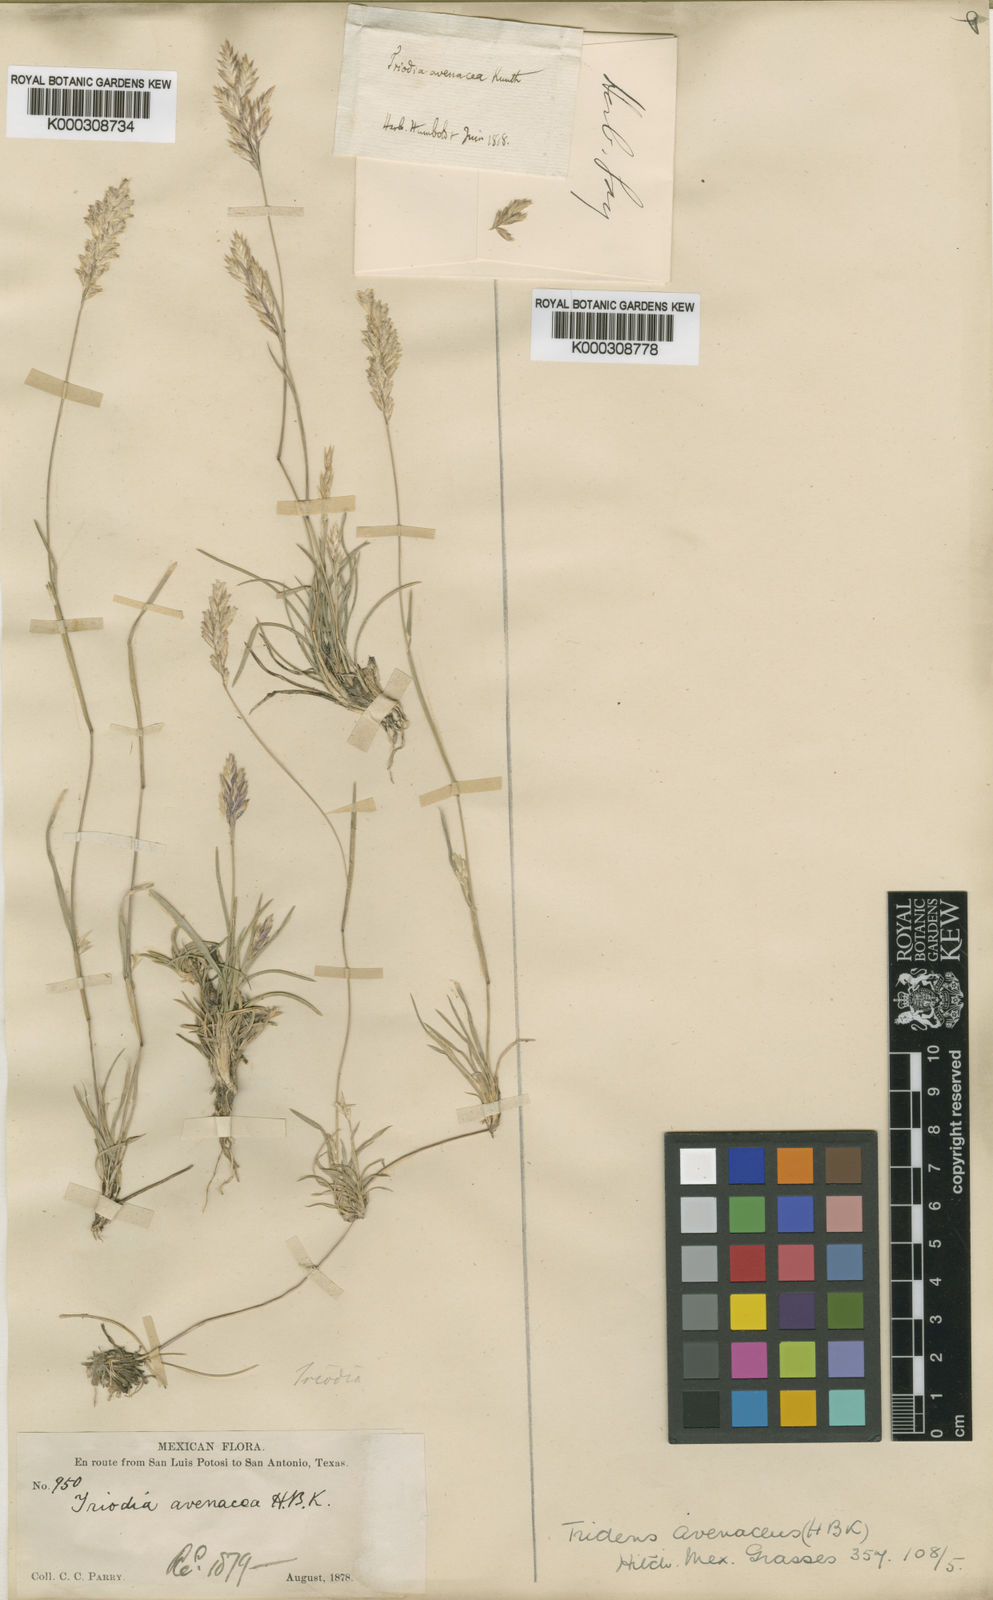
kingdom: Plantae
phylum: Tracheophyta
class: Liliopsida
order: Poales
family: Poaceae
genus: Erioneuron
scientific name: Erioneuron avenaceum
